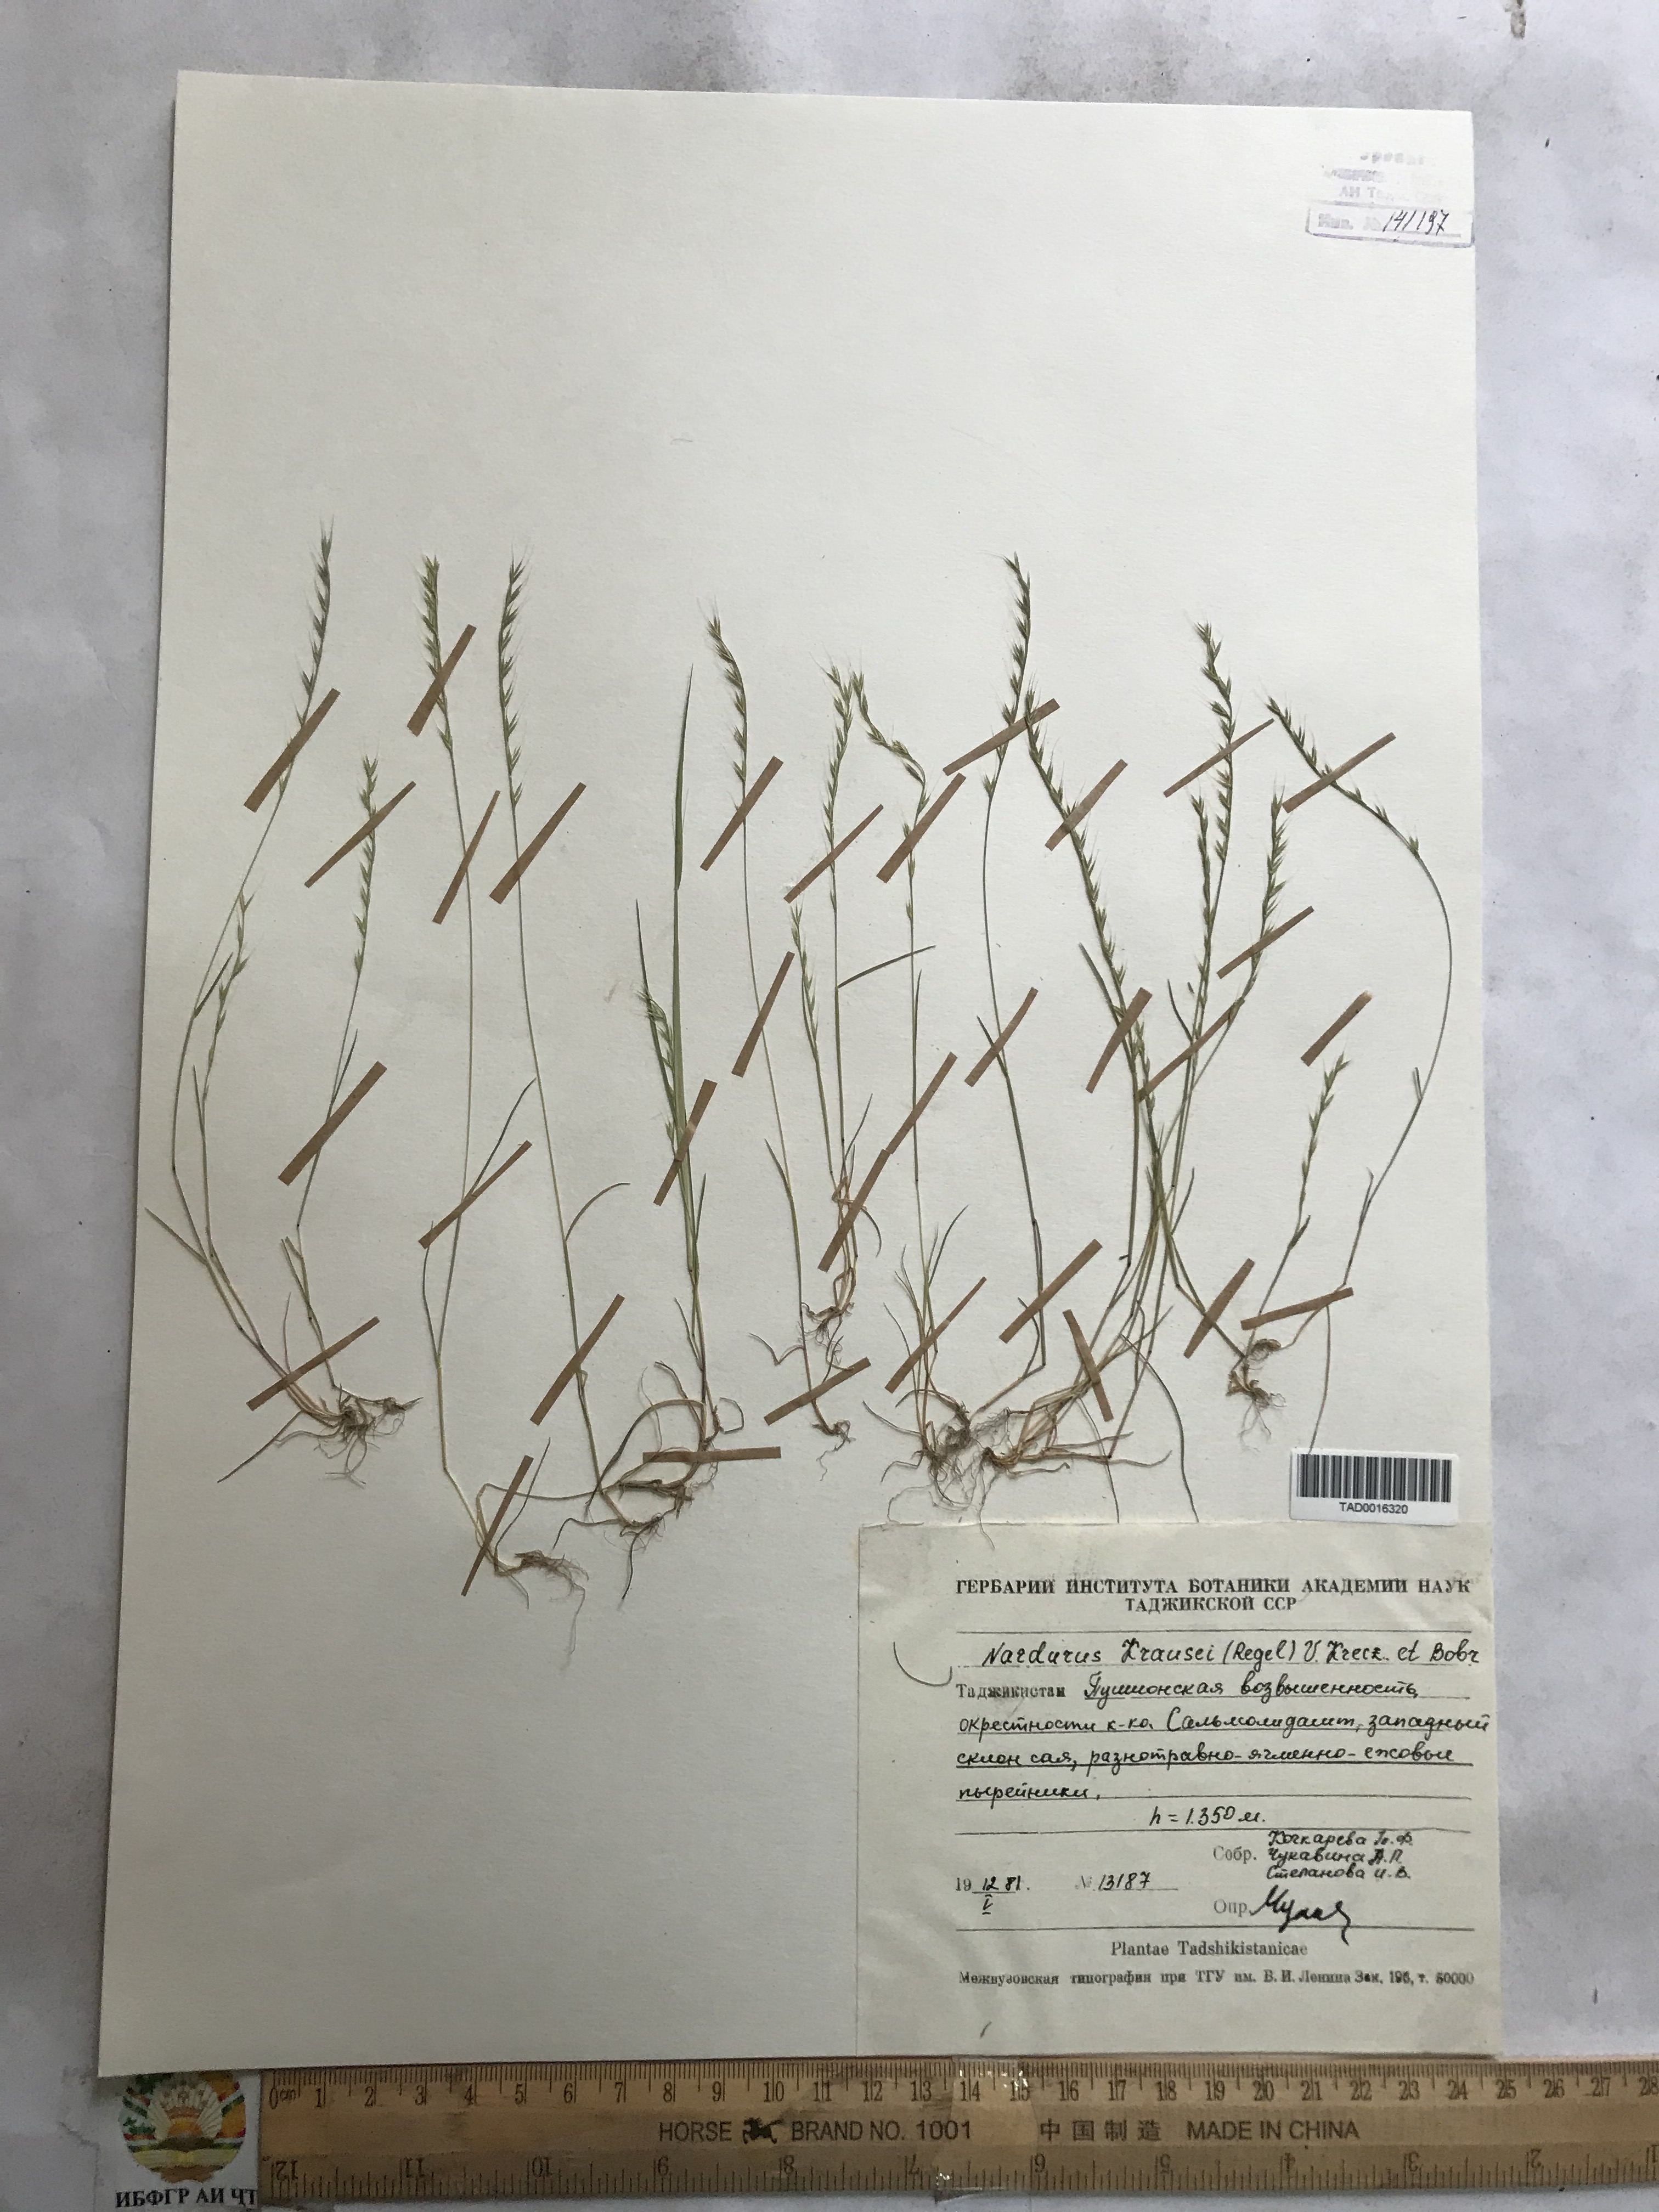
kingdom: Plantae
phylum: Tracheophyta
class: Liliopsida
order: Poales
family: Poaceae
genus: Festuca
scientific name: Festuca maritima
